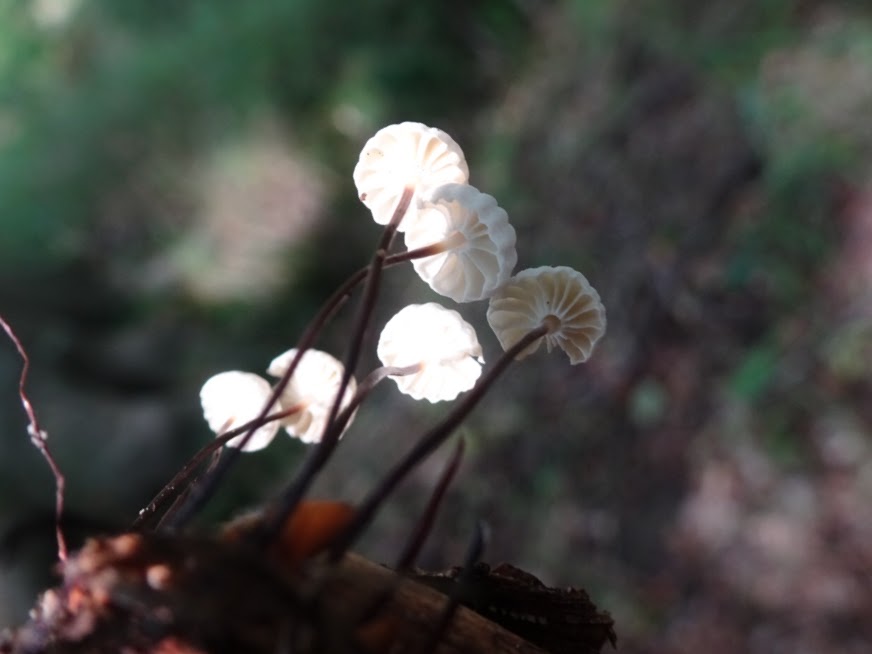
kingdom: Fungi
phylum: Basidiomycota
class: Agaricomycetes
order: Agaricales
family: Marasmiaceae
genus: Marasmius
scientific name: Marasmius rotula
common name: hjul-bruskhat
